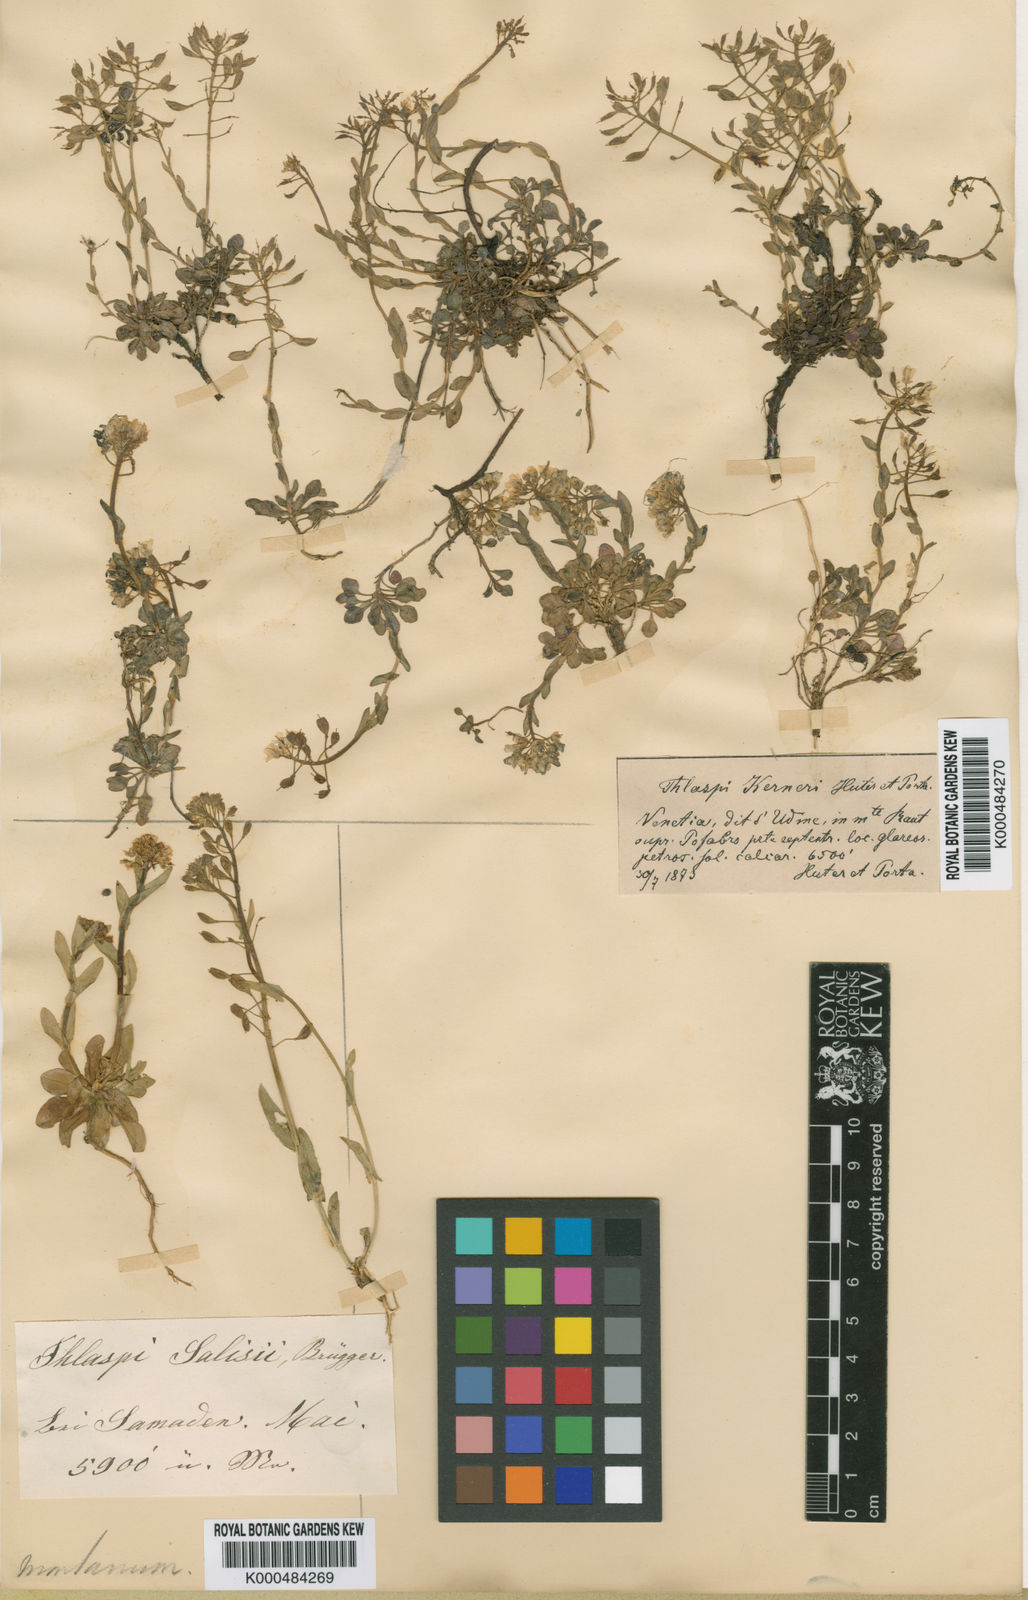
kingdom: Plantae
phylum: Tracheophyta
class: Magnoliopsida
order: Brassicales
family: Brassicaceae
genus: Noccaea
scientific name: Noccaea montana
